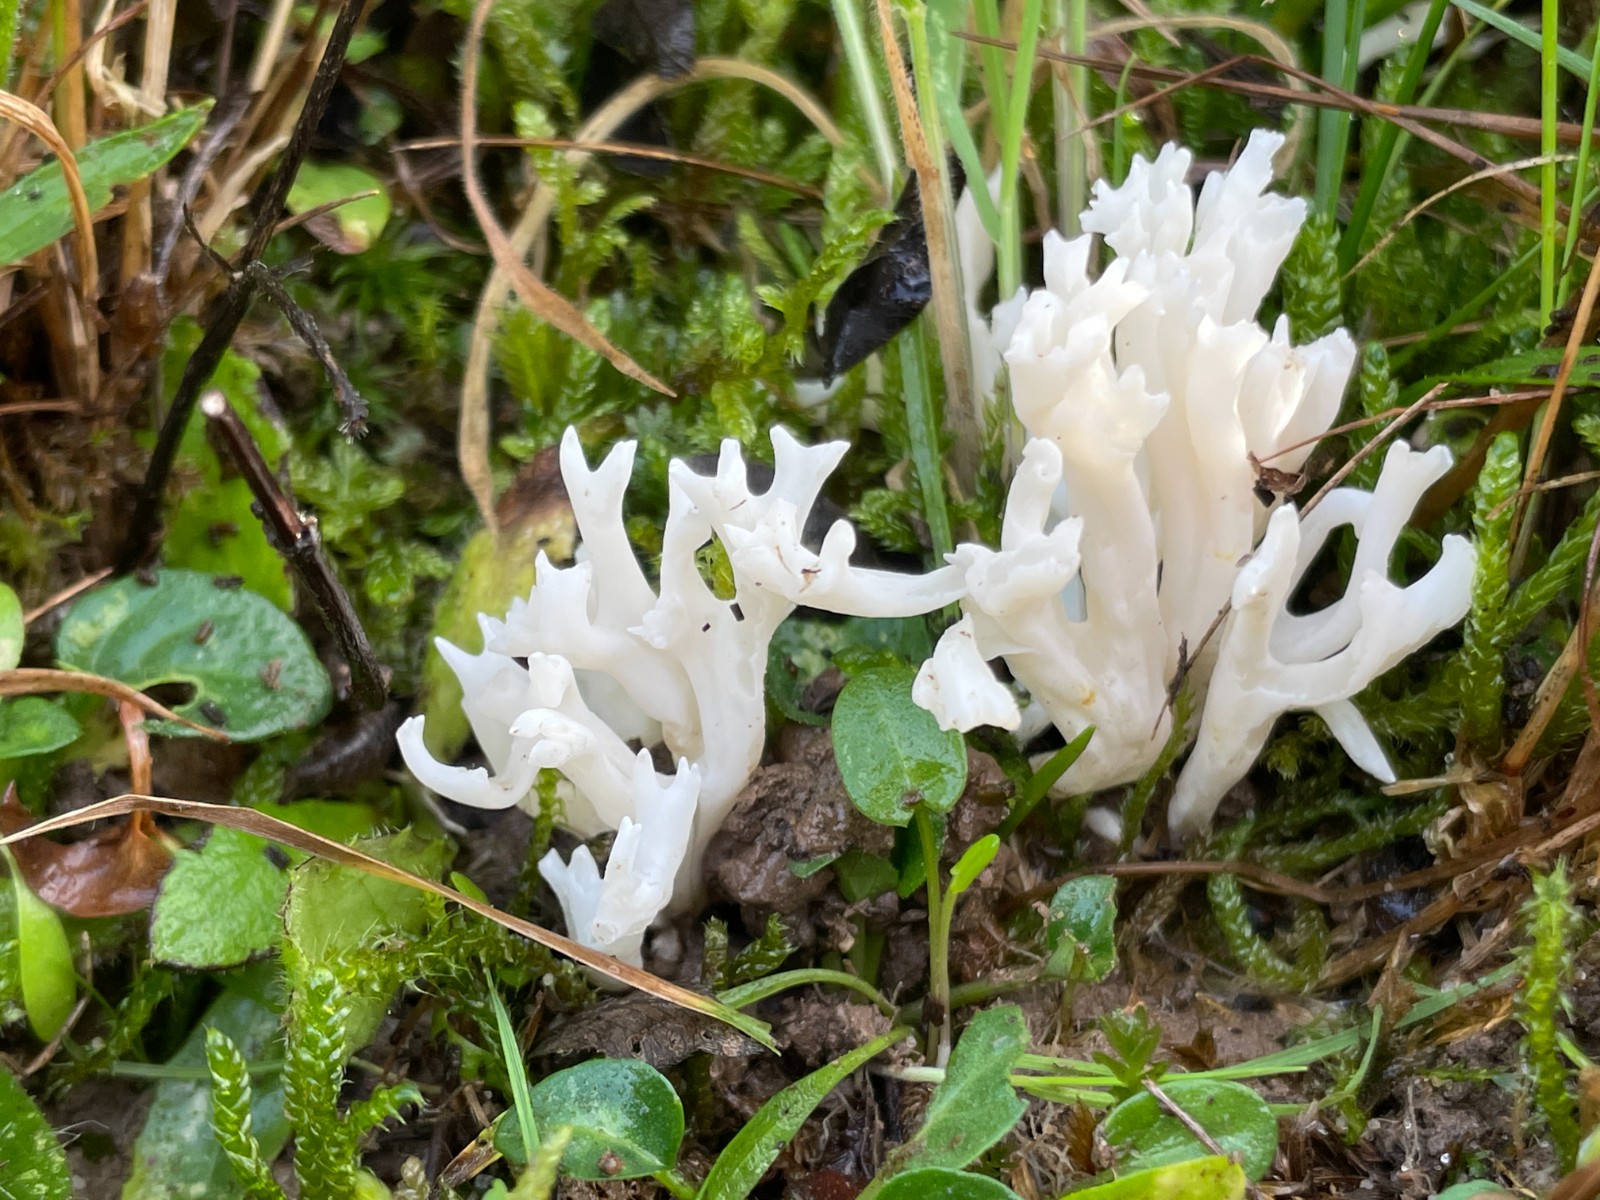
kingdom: Fungi
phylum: Basidiomycota
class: Agaricomycetes
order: Agaricales
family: Clavariaceae
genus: Ramariopsis
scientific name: Ramariopsis
